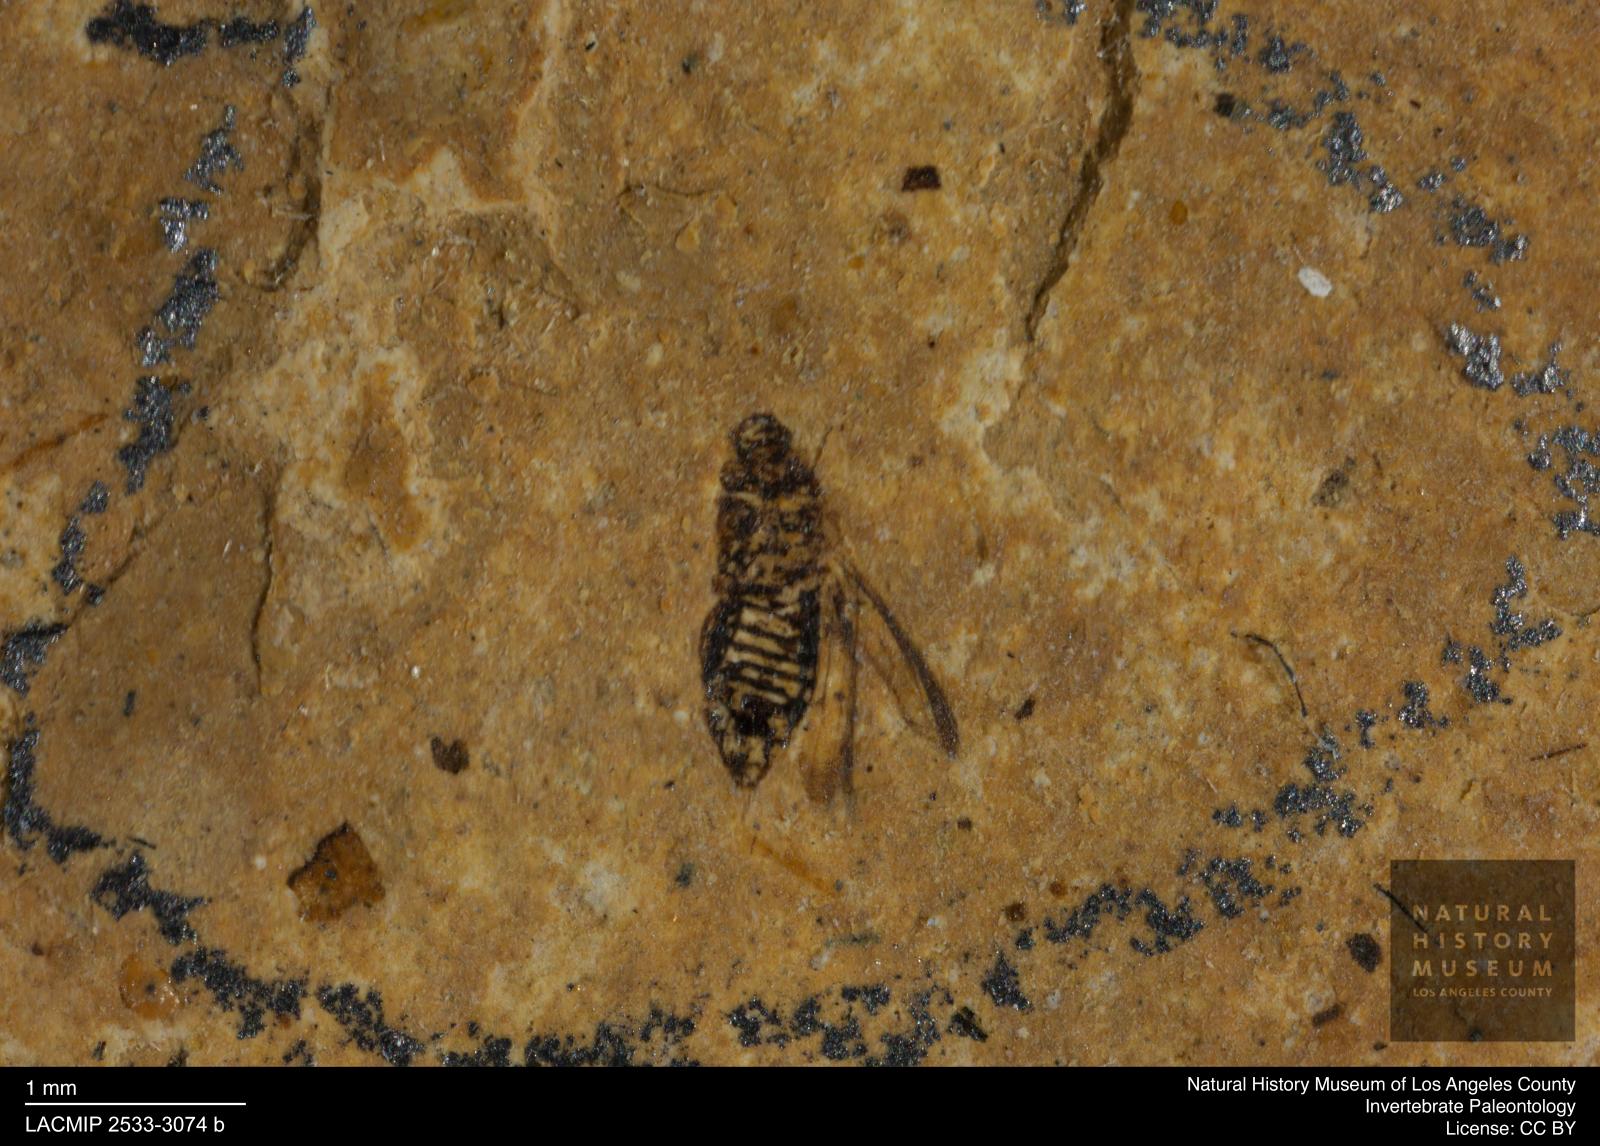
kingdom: Animalia
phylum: Arthropoda
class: Insecta
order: Thysanoptera
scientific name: Thysanoptera
